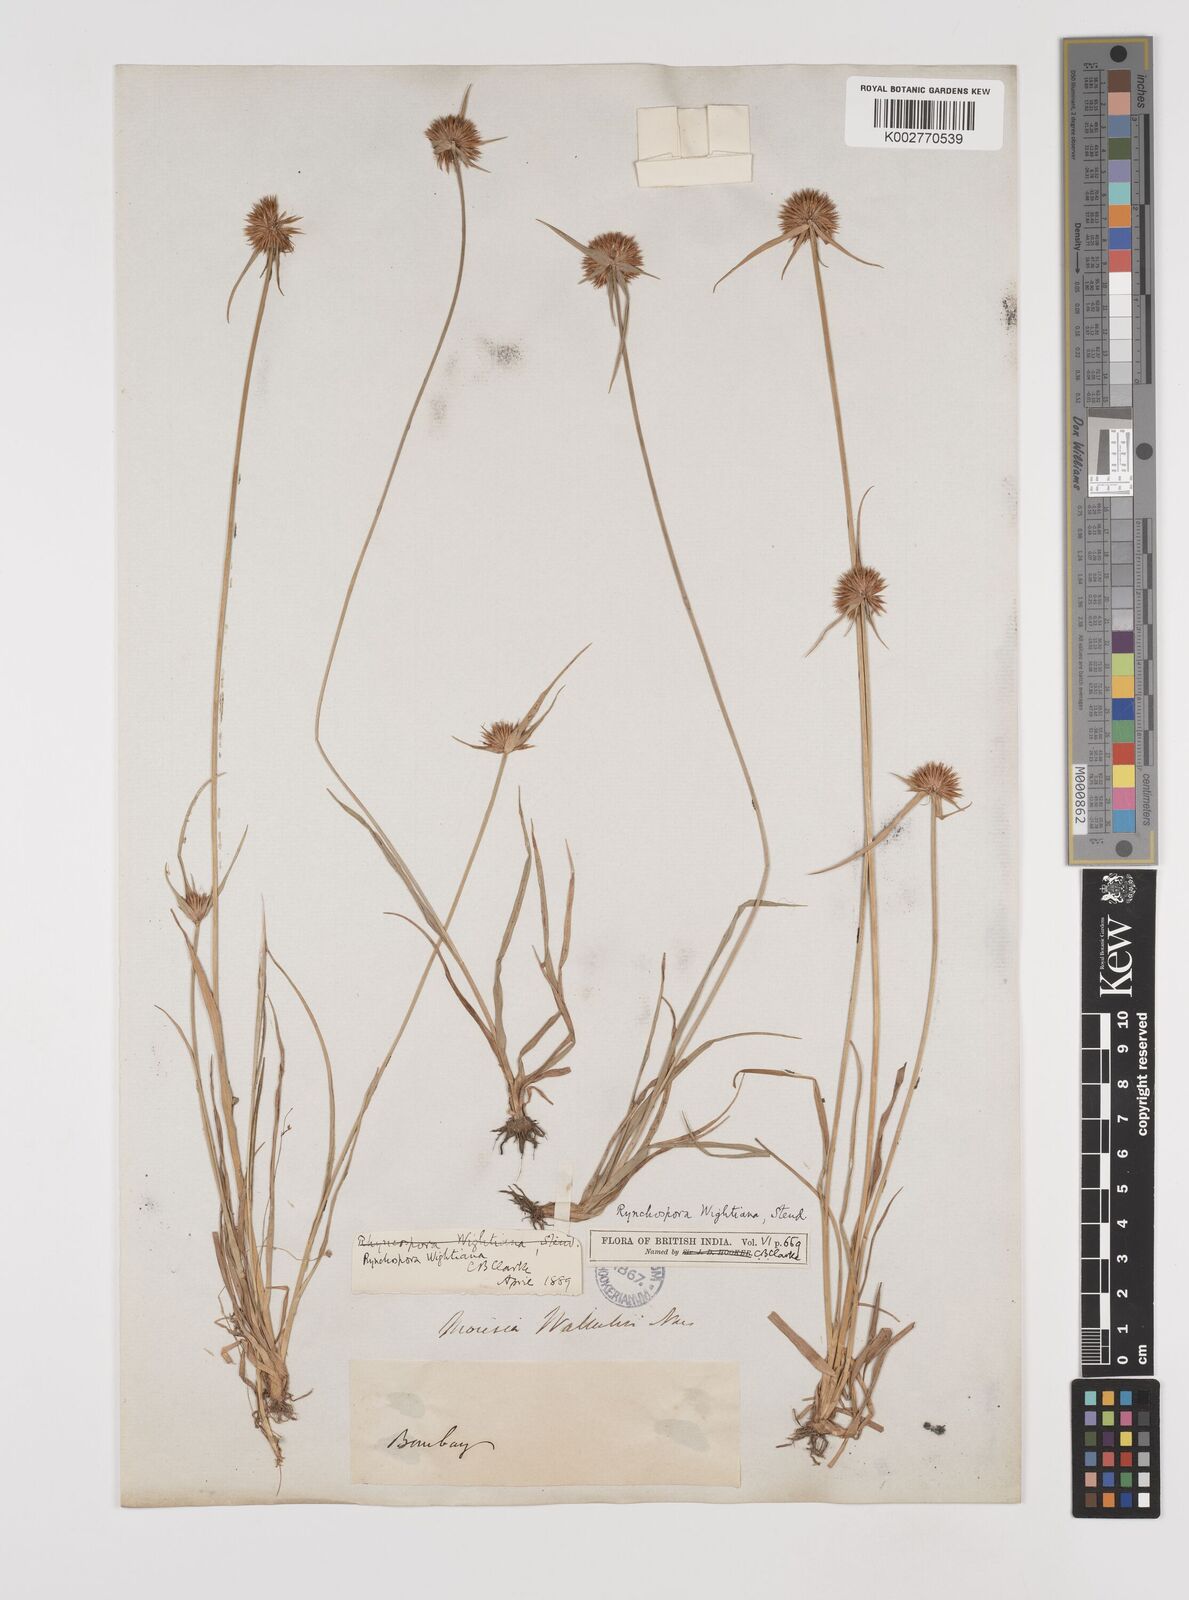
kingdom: Plantae
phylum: Tracheophyta
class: Liliopsida
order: Poales
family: Cyperaceae
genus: Rhynchospora
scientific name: Rhynchospora wightiana
